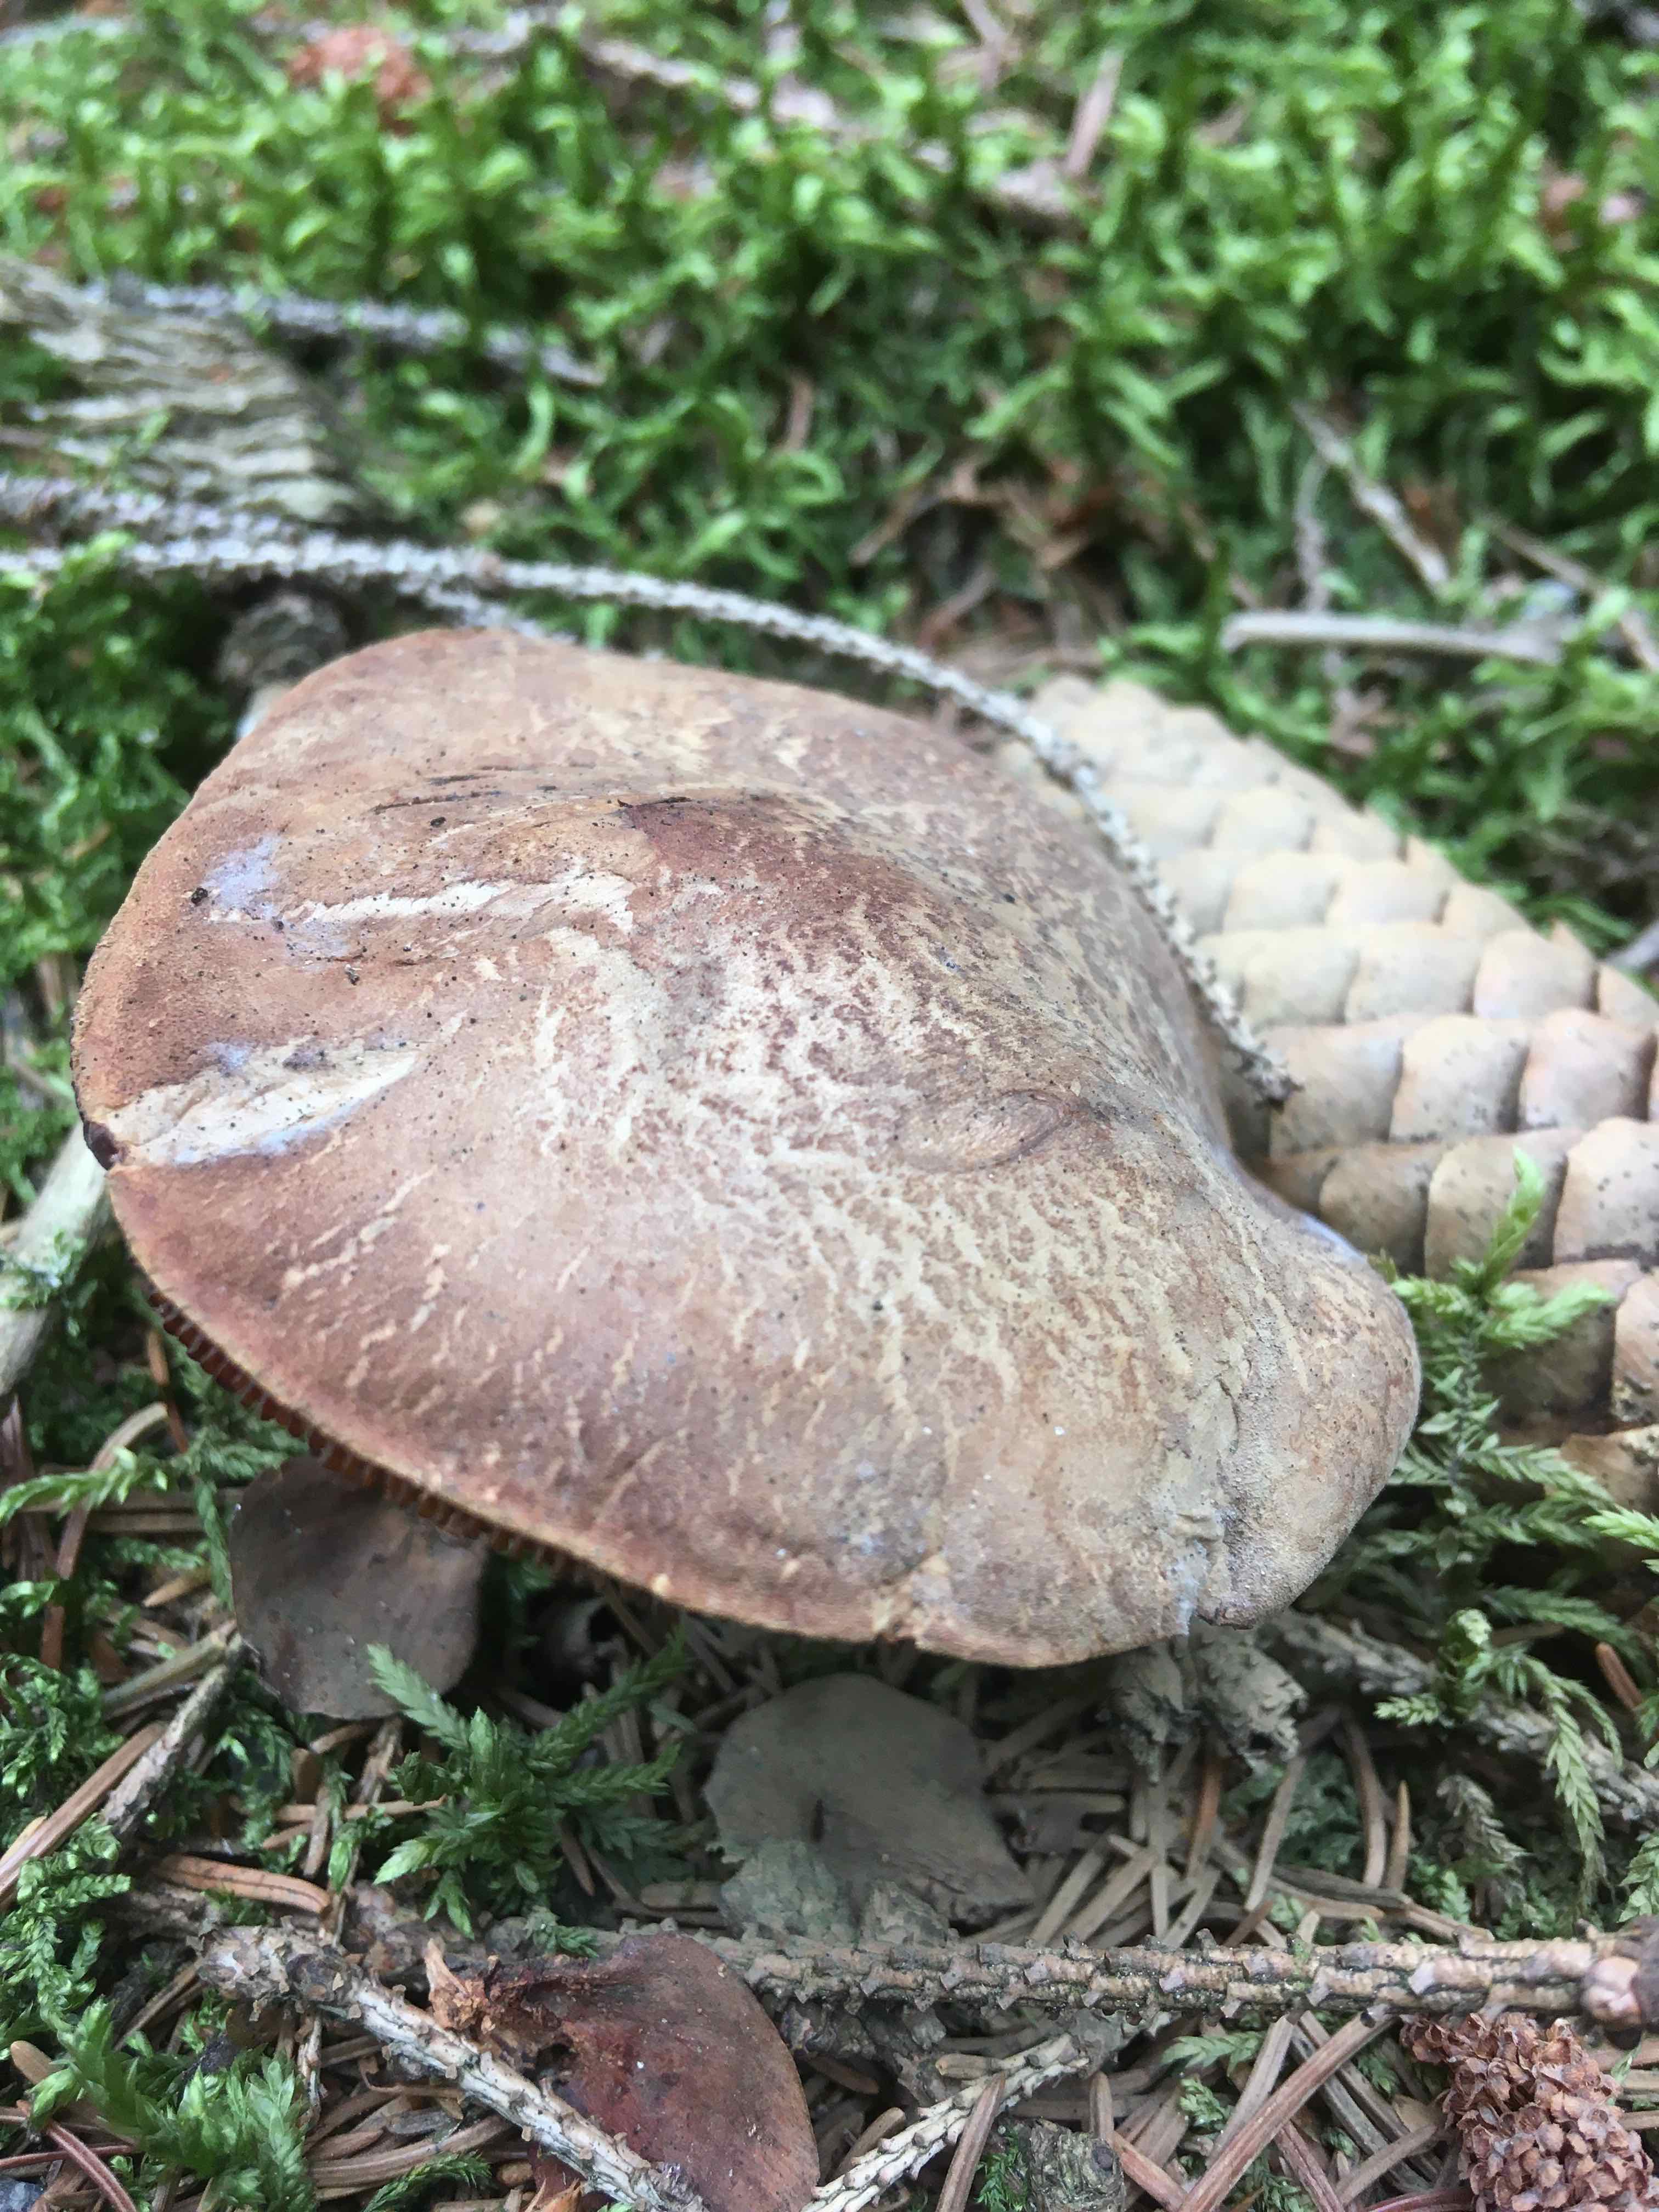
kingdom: Fungi
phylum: Basidiomycota
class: Agaricomycetes
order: Boletales
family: Tapinellaceae
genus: Tapinella
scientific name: Tapinella atrotomentosa
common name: sortfiltet viftesvamp
